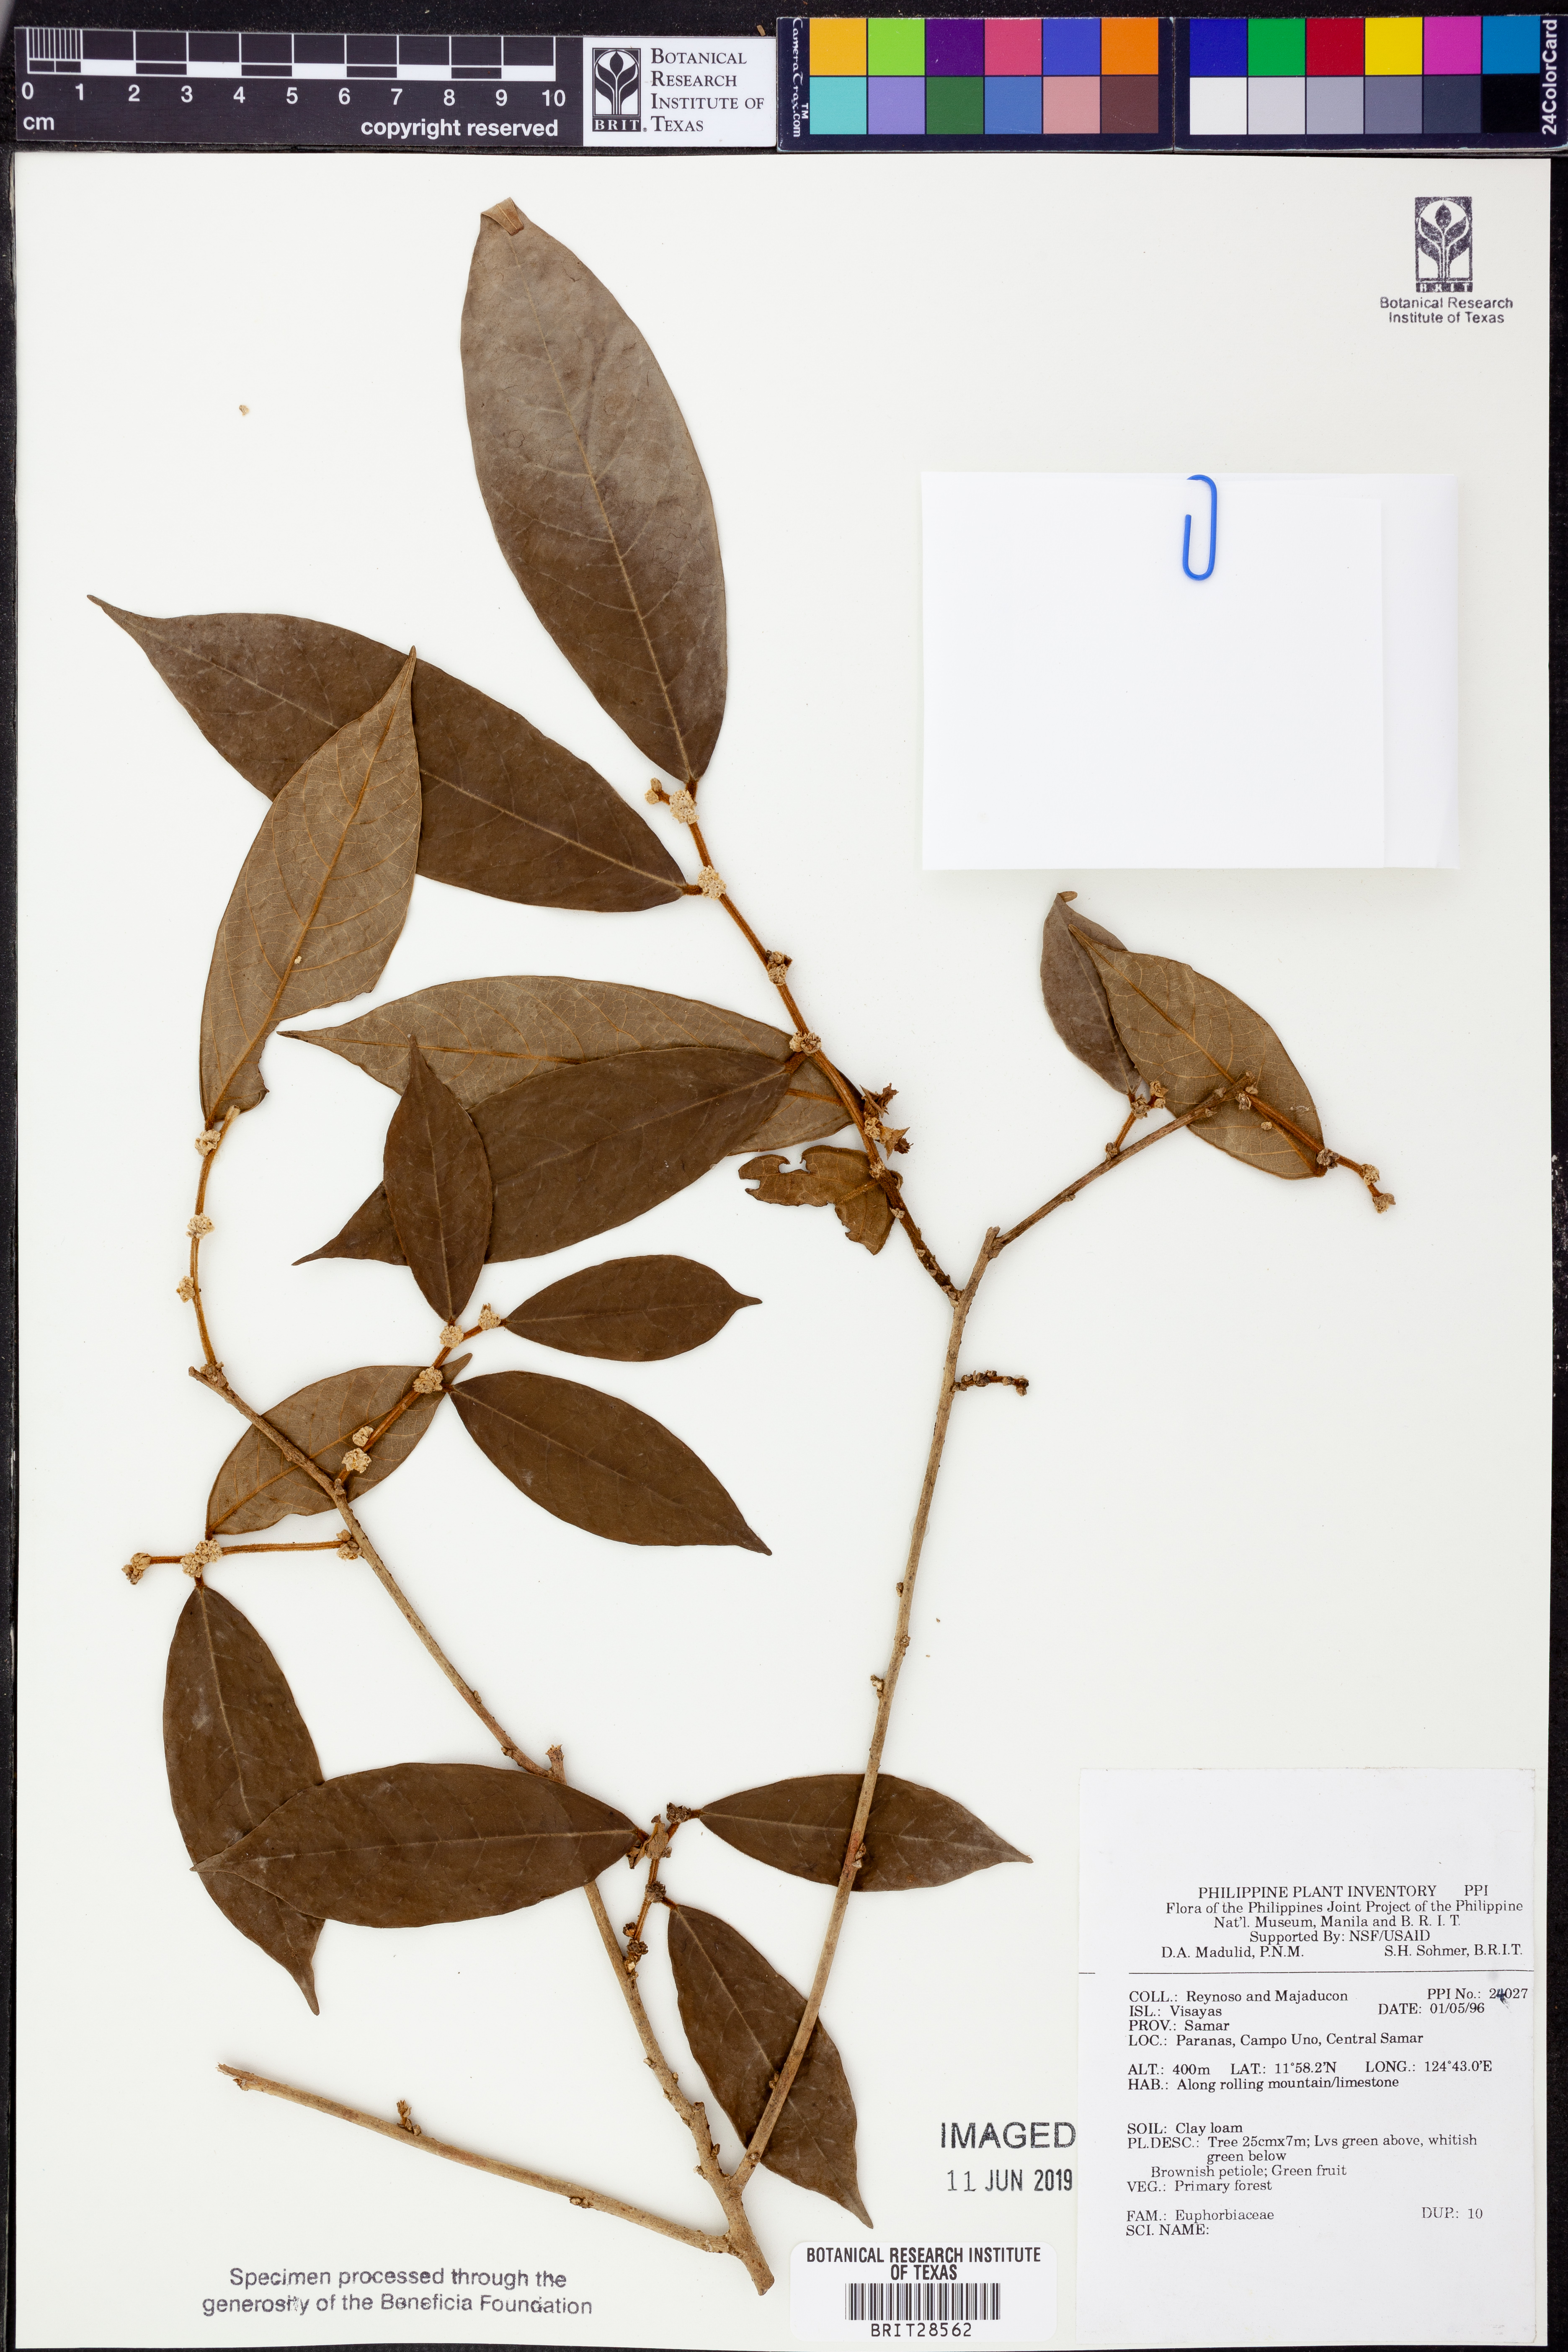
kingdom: Plantae
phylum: Tracheophyta
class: Magnoliopsida
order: Malpighiales
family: Euphorbiaceae
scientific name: Euphorbiaceae
